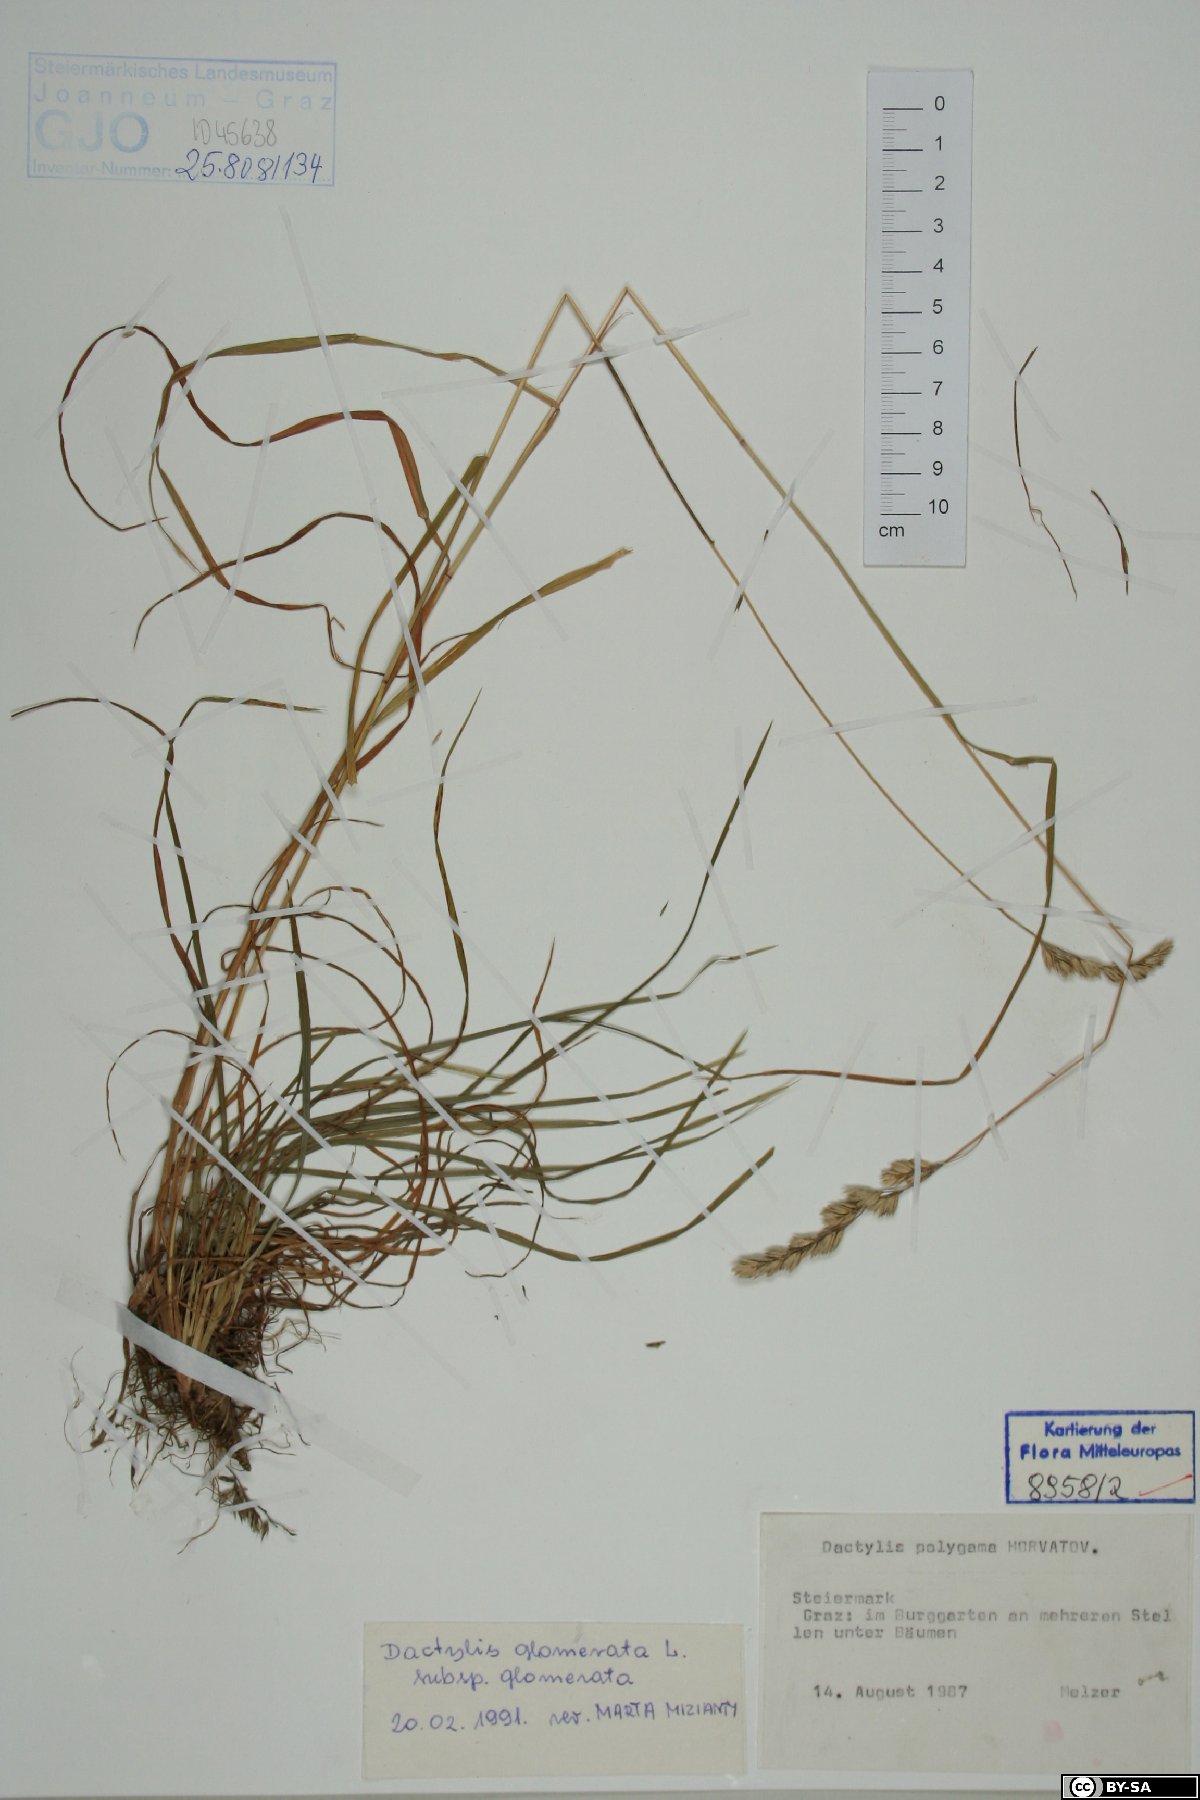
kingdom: Plantae
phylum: Tracheophyta
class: Liliopsida
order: Poales
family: Poaceae
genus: Dactylis
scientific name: Dactylis glomerata
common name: Orchardgrass
